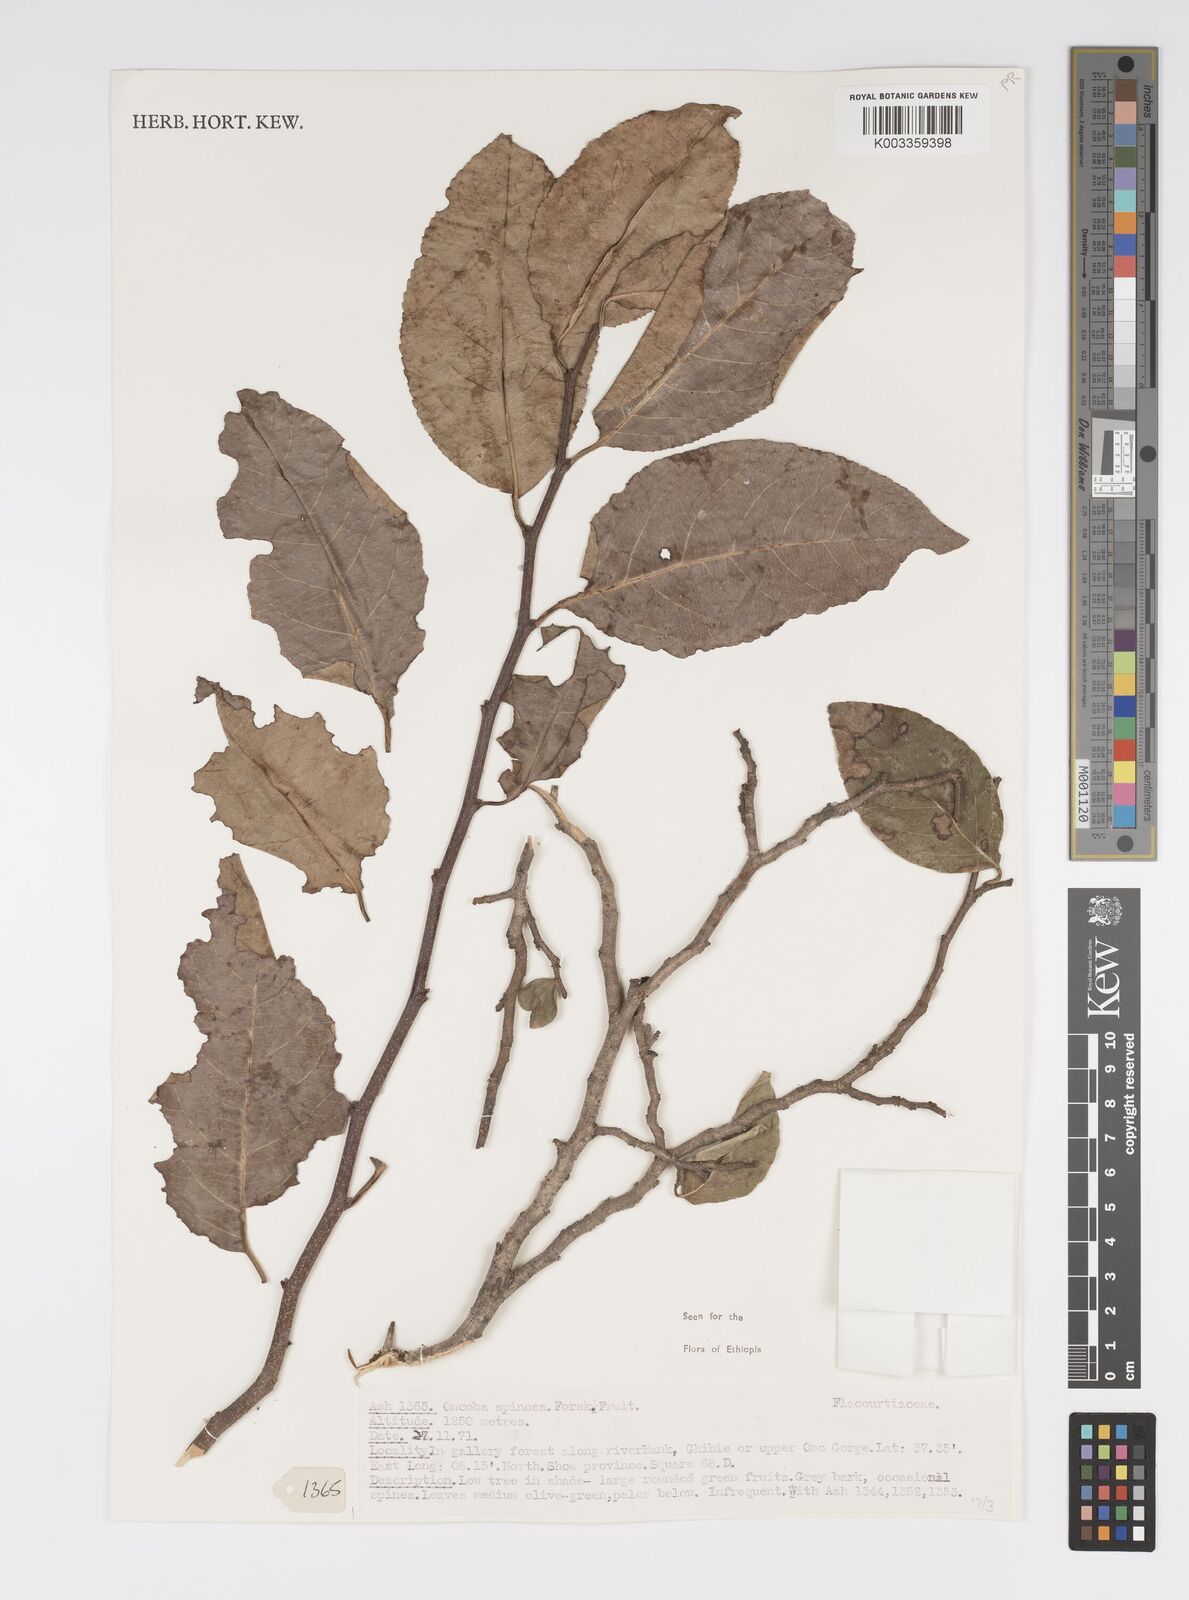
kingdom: Plantae
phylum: Tracheophyta
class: Magnoliopsida
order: Malpighiales
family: Salicaceae
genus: Oncoba
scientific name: Oncoba spinosa
